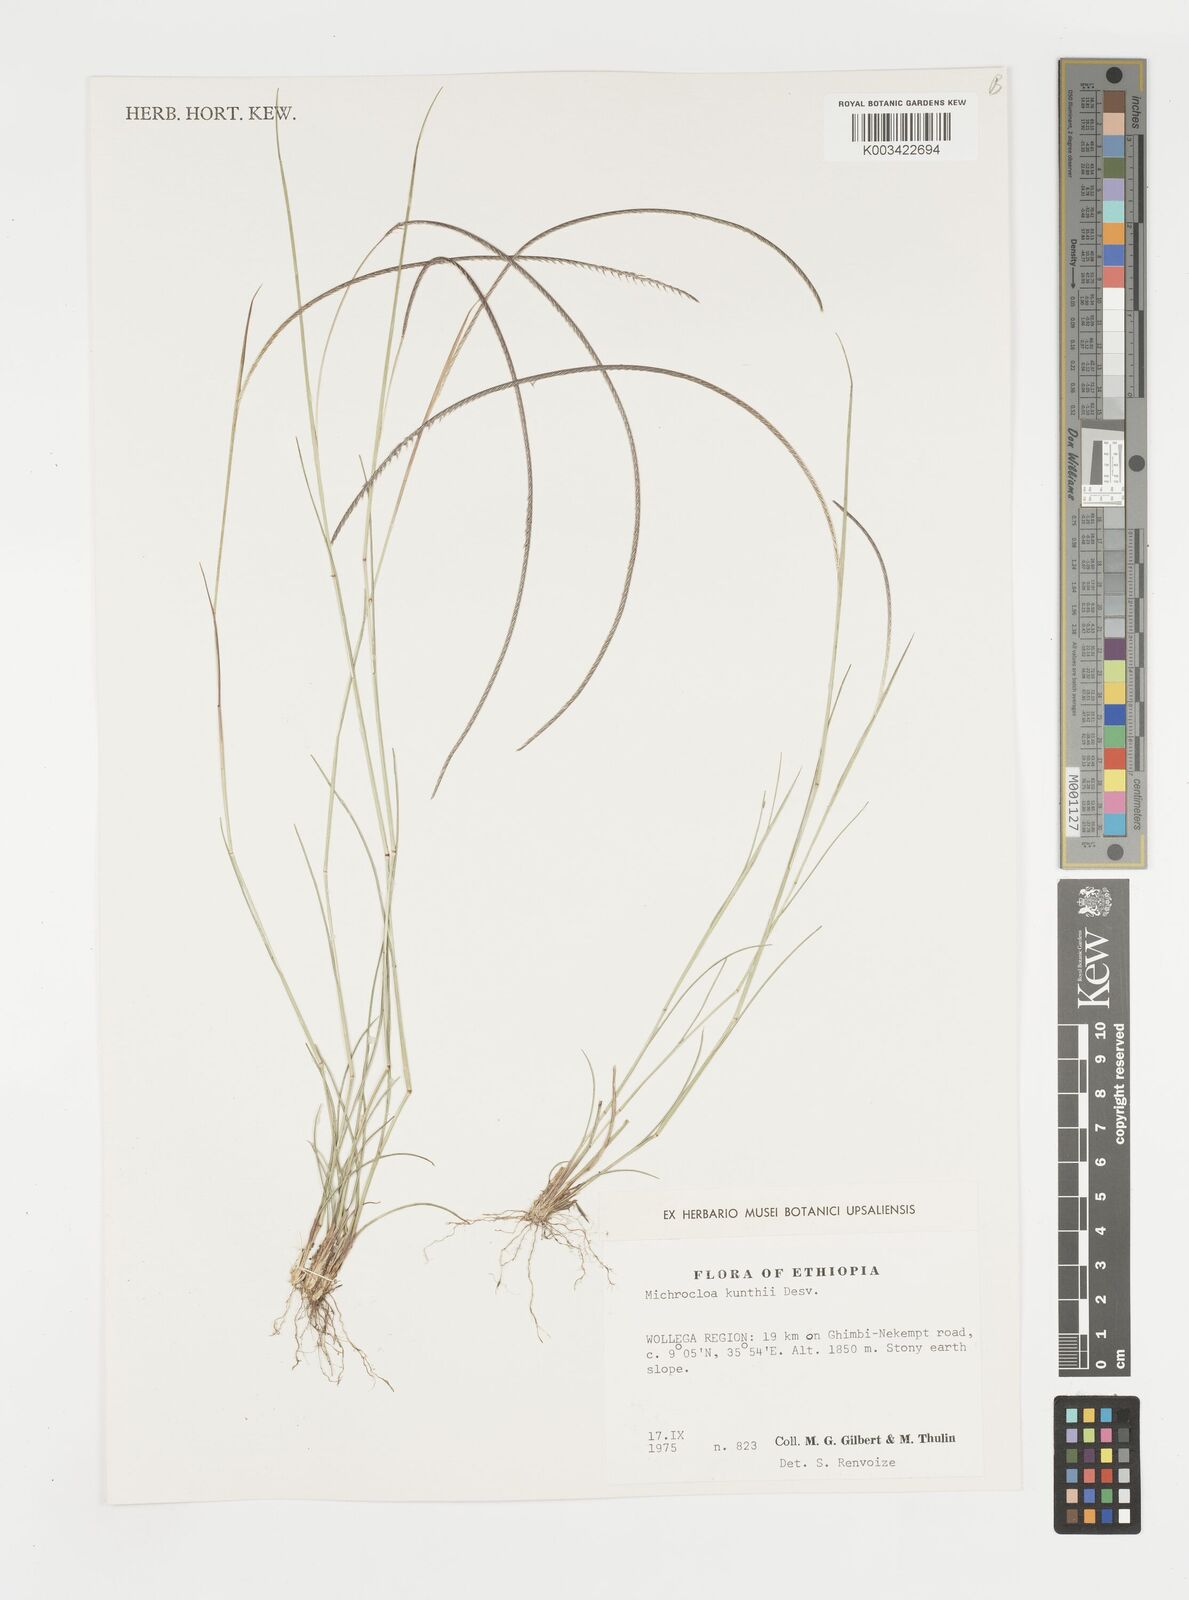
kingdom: Plantae
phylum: Tracheophyta
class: Liliopsida
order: Poales
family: Poaceae
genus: Microchloa
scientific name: Microchloa kunthii
